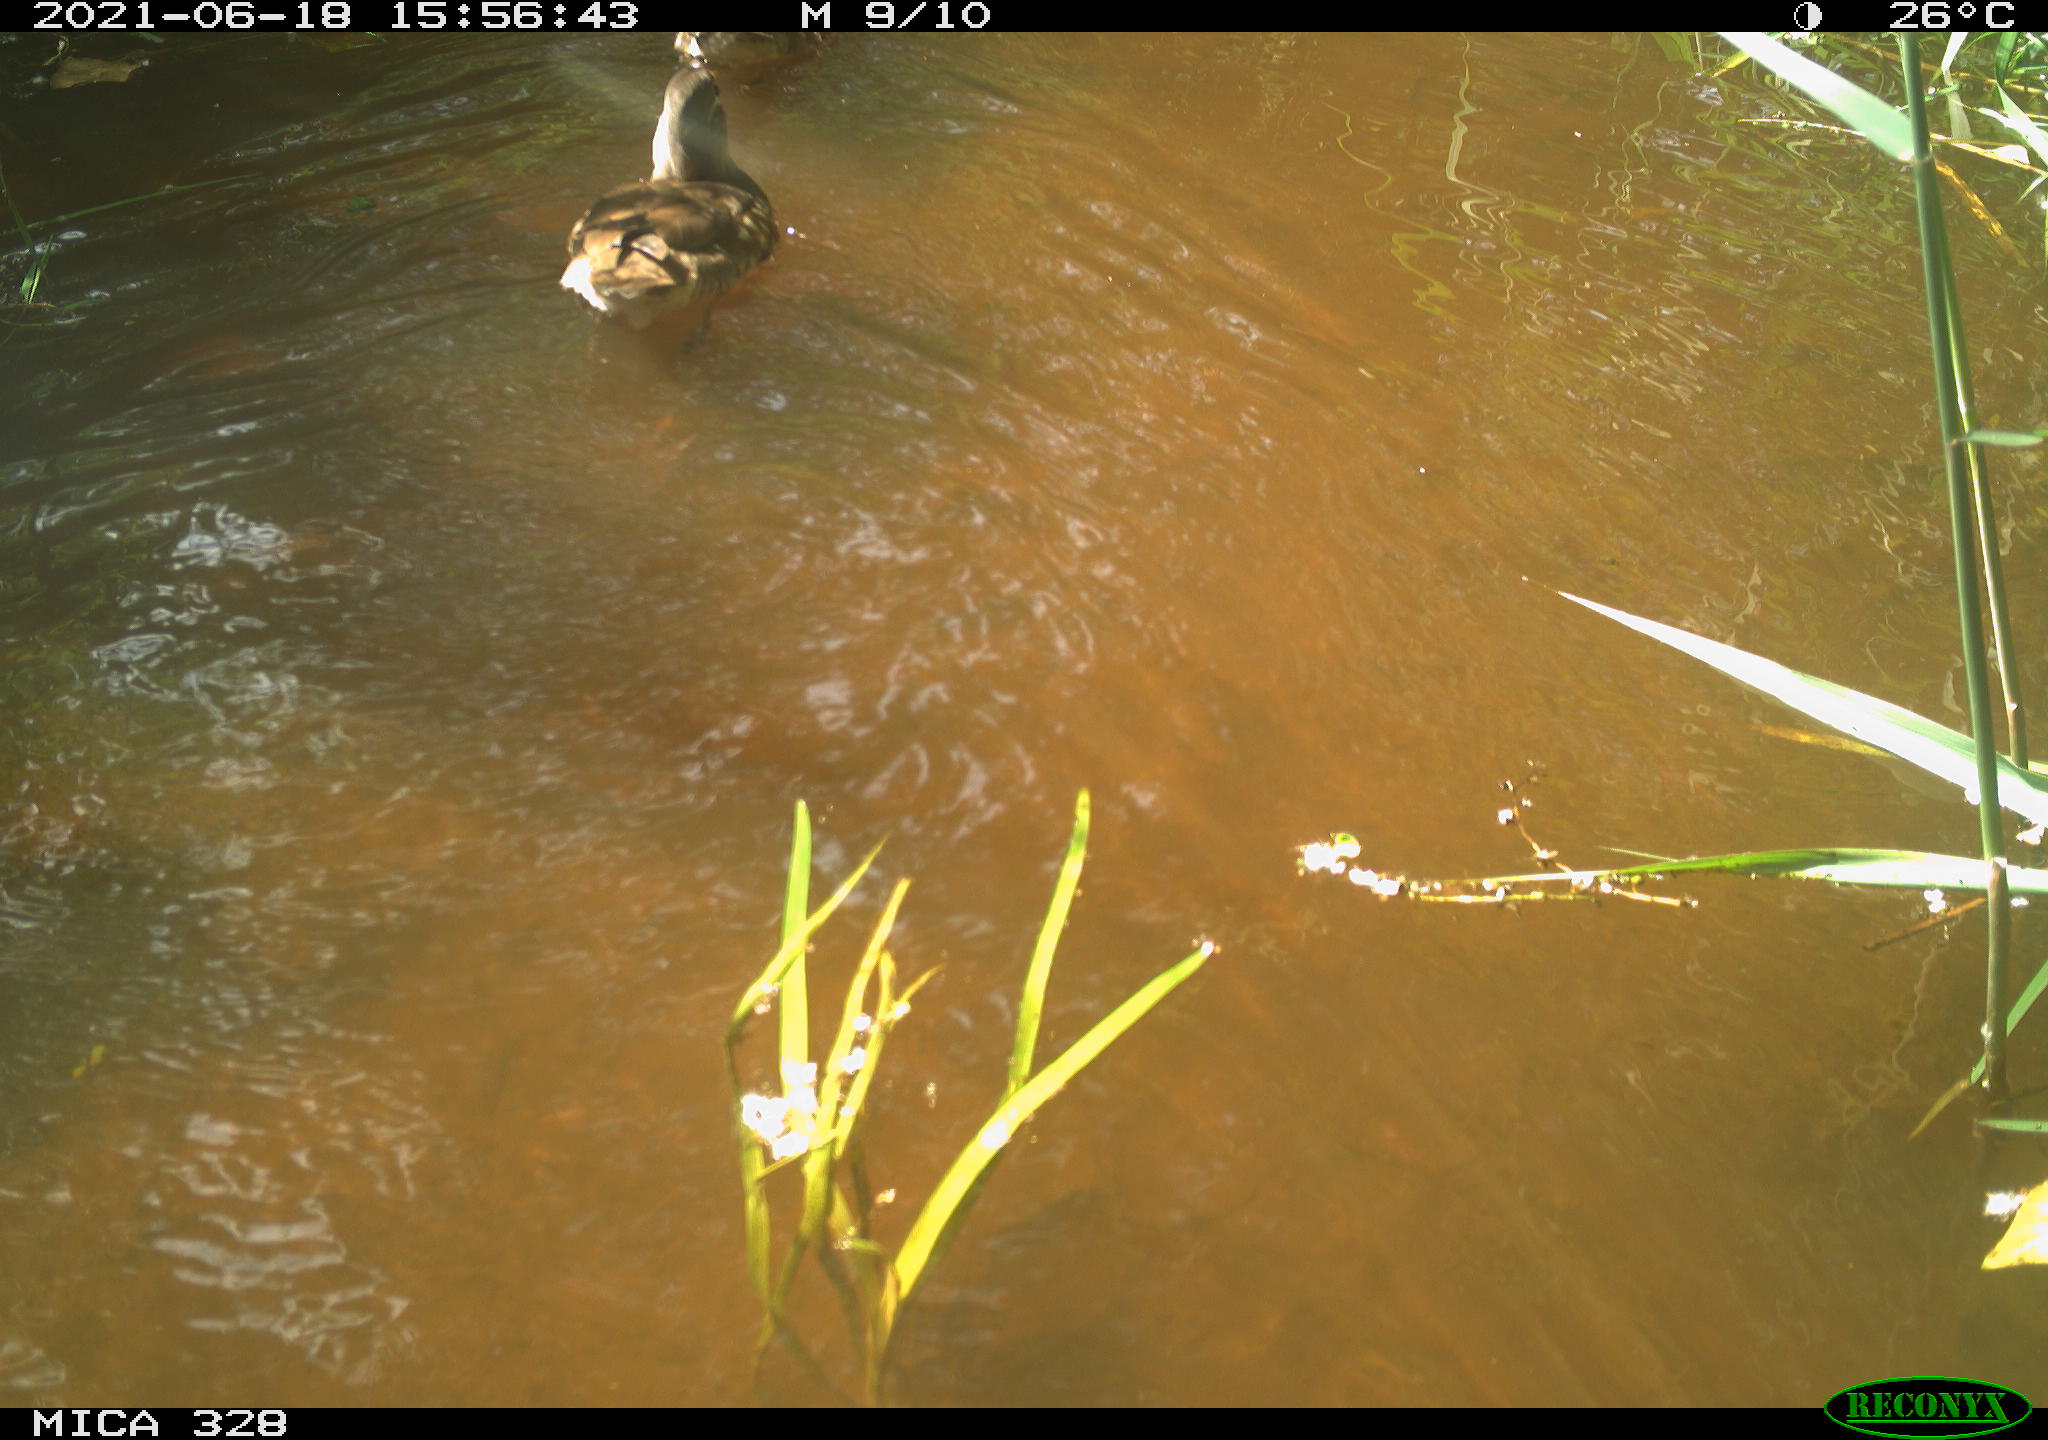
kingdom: Animalia
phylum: Chordata
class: Aves
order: Anseriformes
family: Anatidae
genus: Aix
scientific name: Aix galericulata
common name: Mandarin duck
